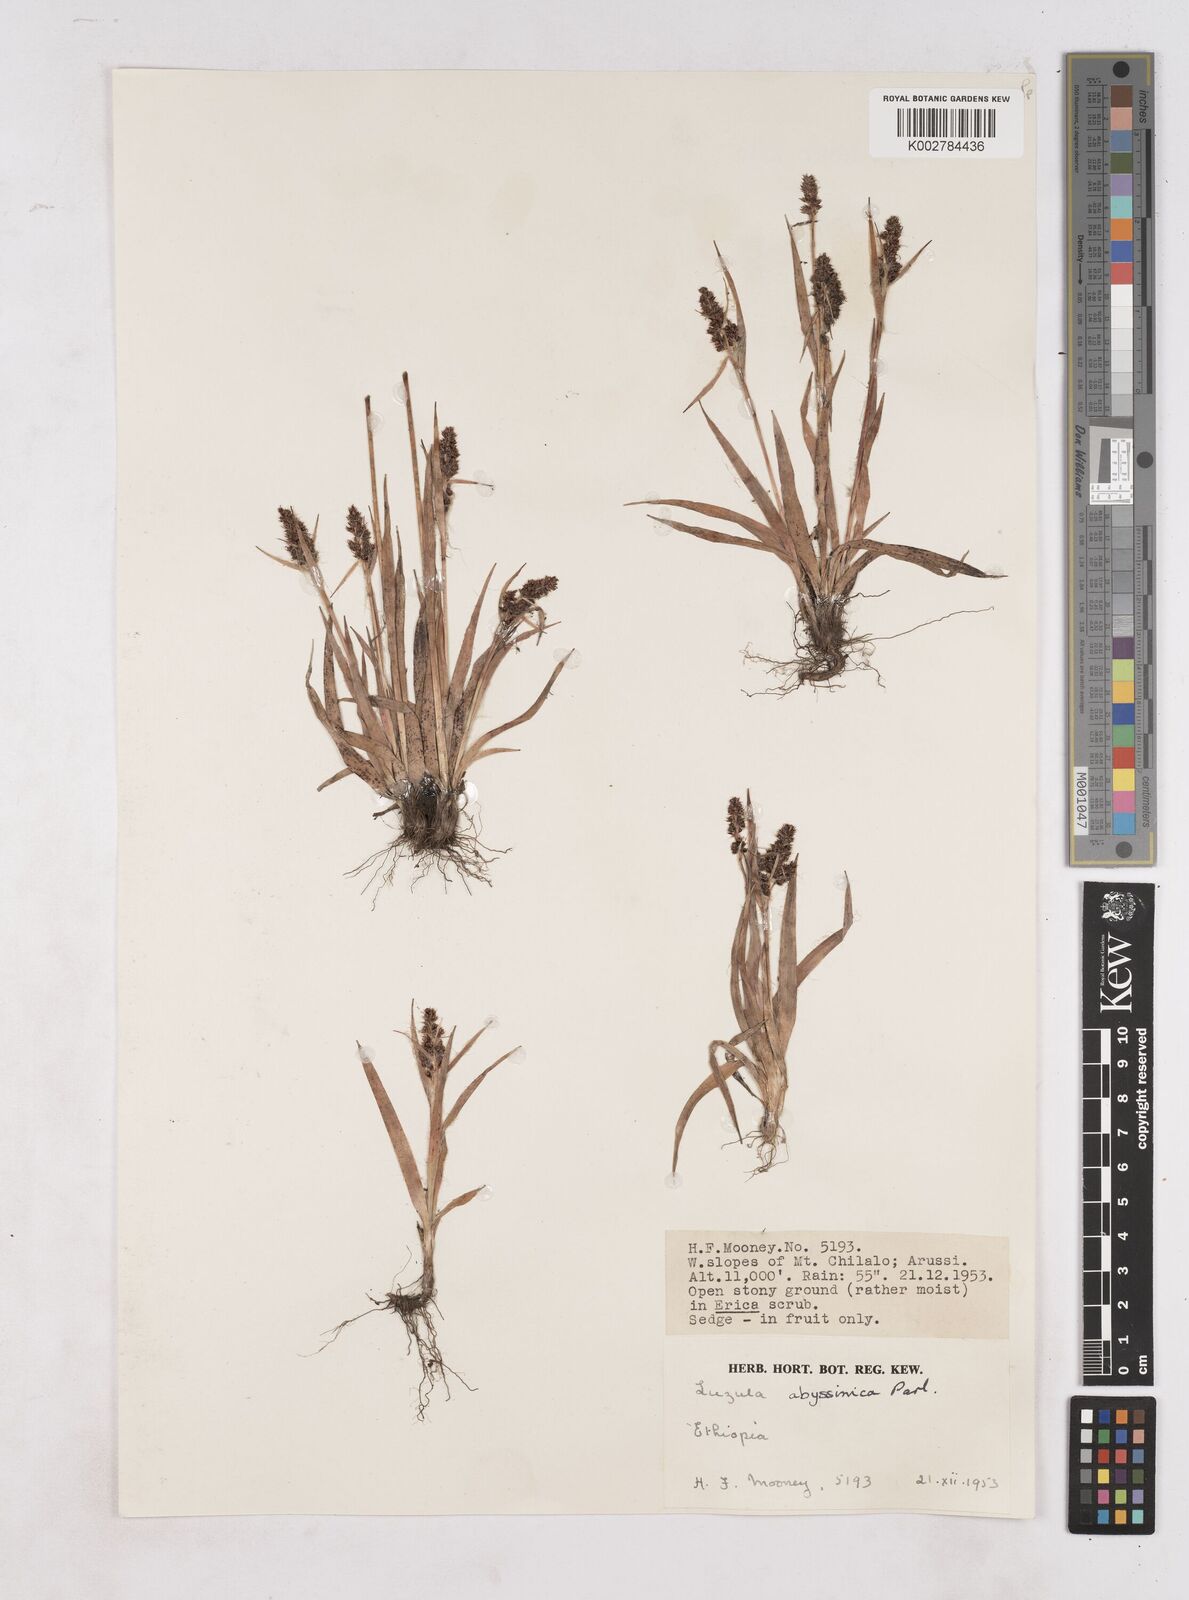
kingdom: Plantae
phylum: Tracheophyta
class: Liliopsida
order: Poales
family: Juncaceae
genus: Luzula
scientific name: Luzula abyssinica
